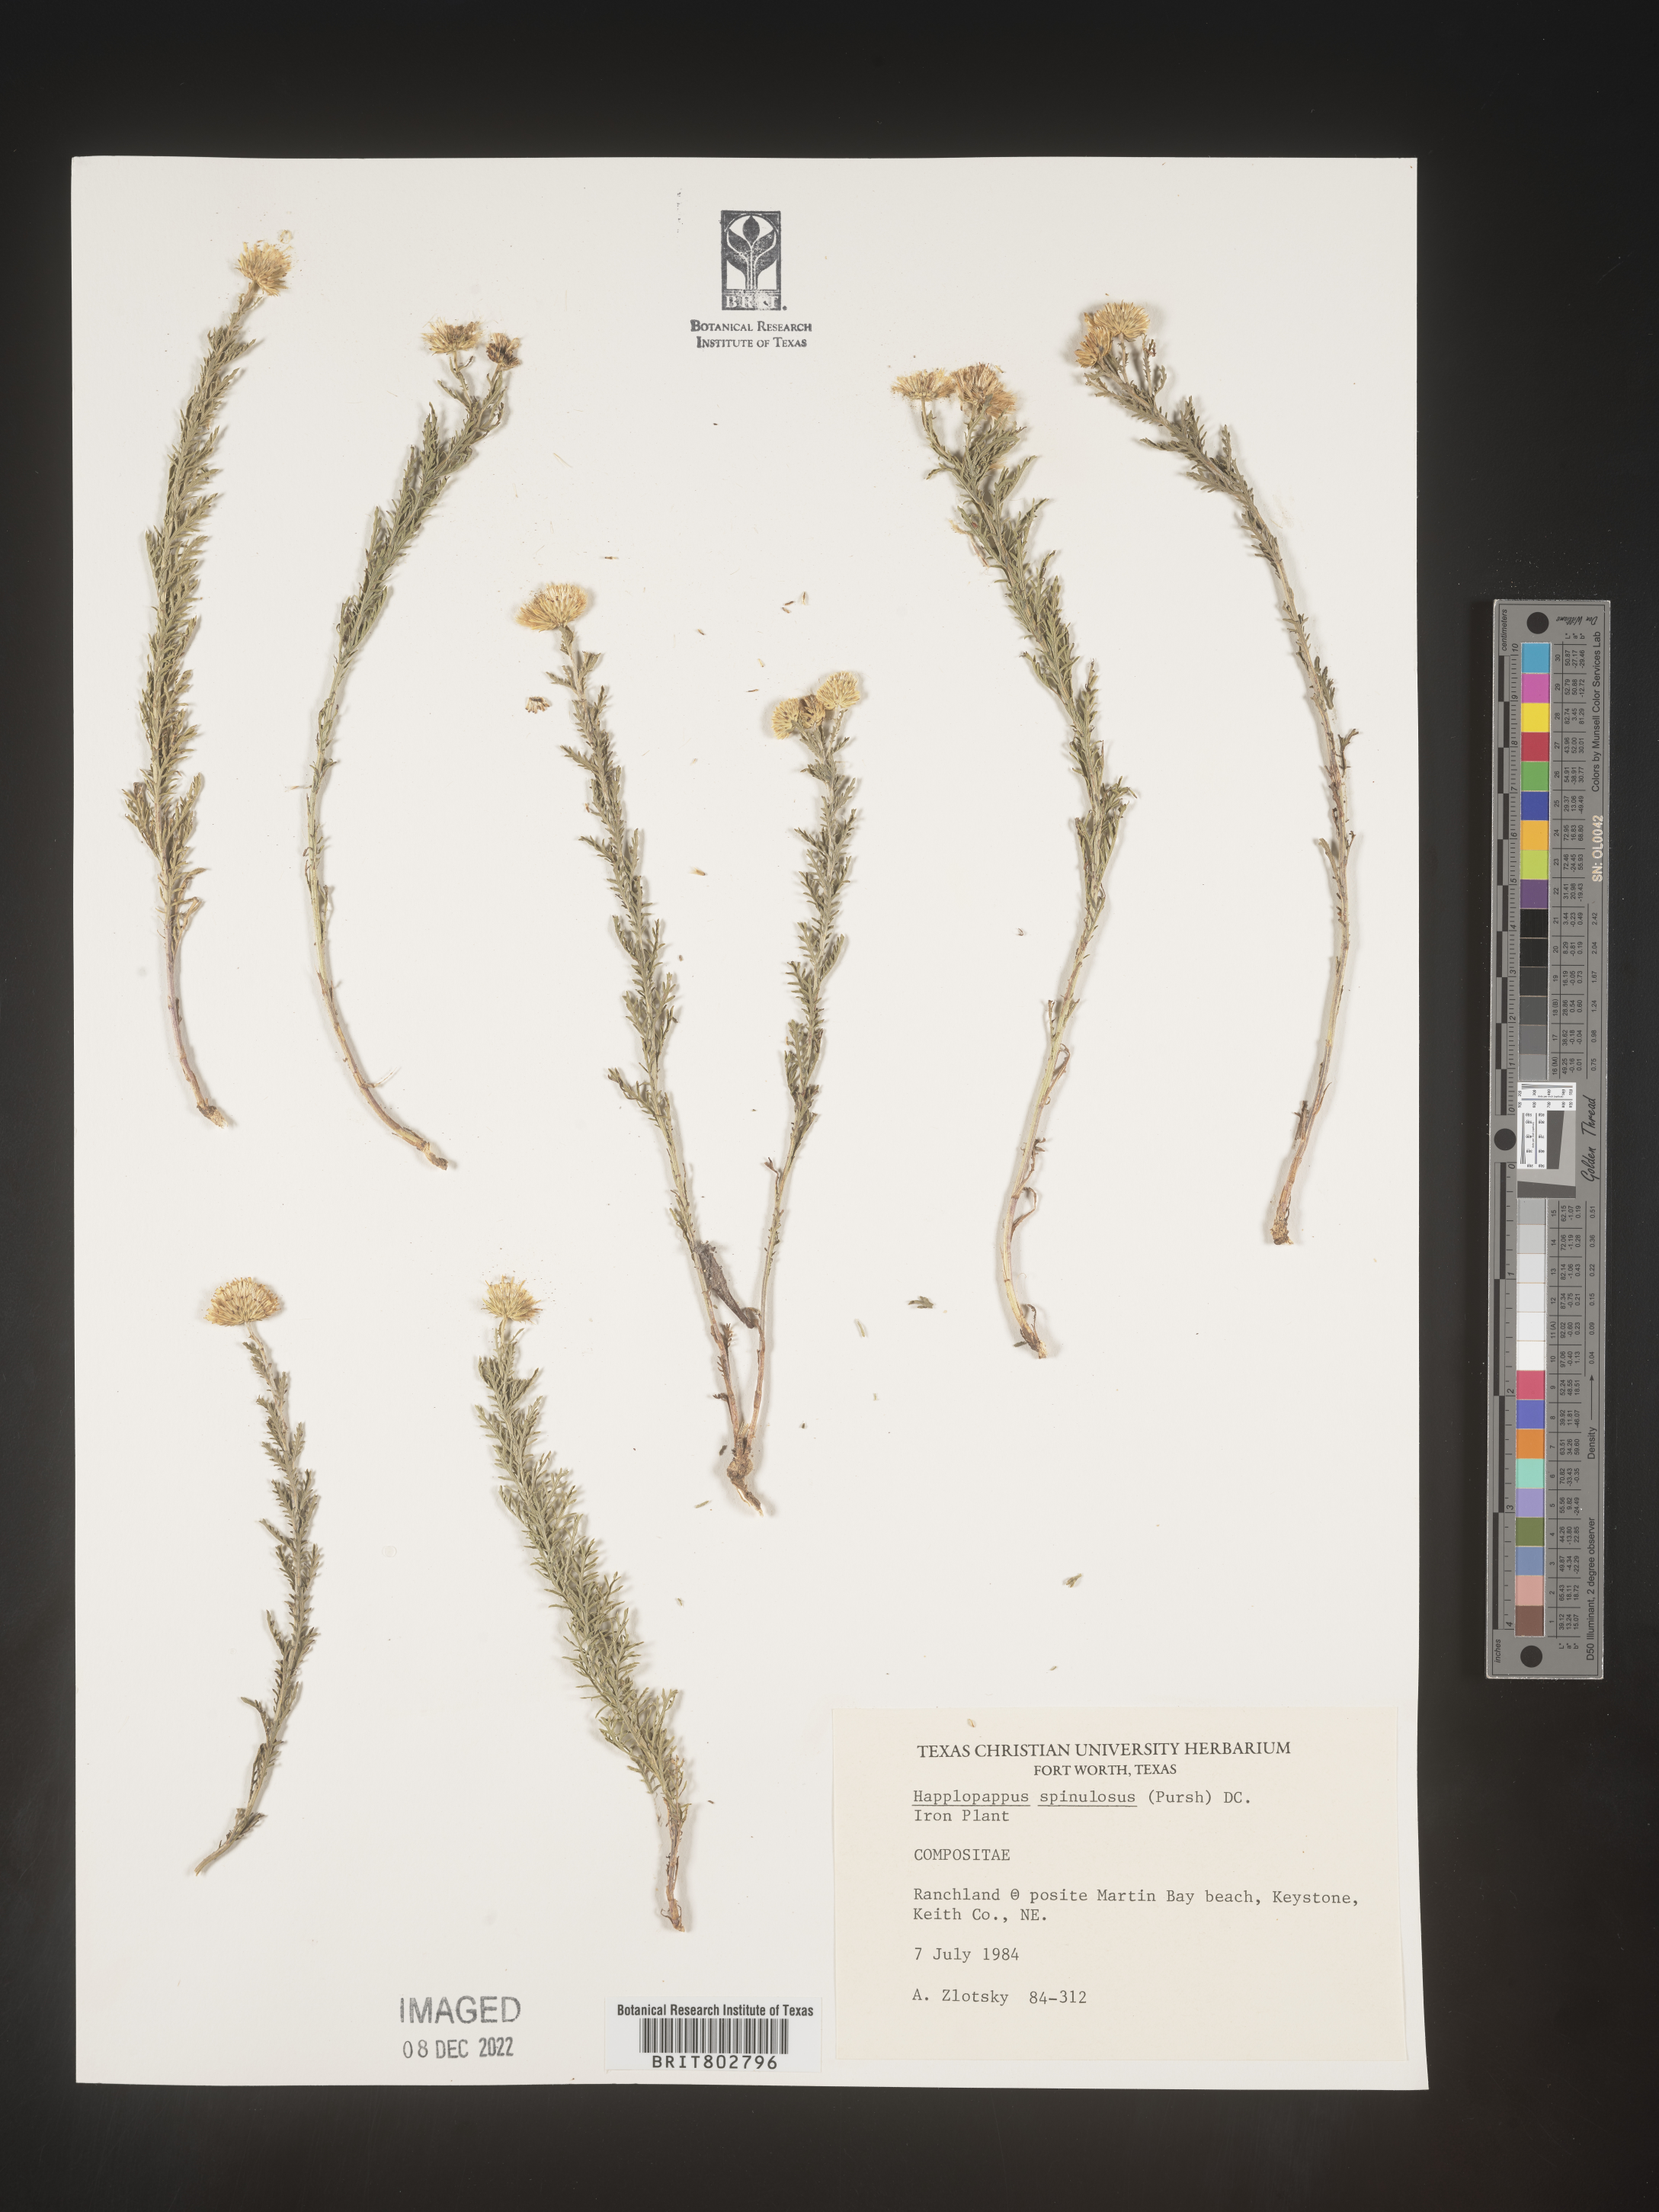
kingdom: Plantae
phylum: Tracheophyta
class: Magnoliopsida
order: Asterales
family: Asteraceae
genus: Xanthisma
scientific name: Xanthisma spinulosum
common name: Spiny goldenweed
